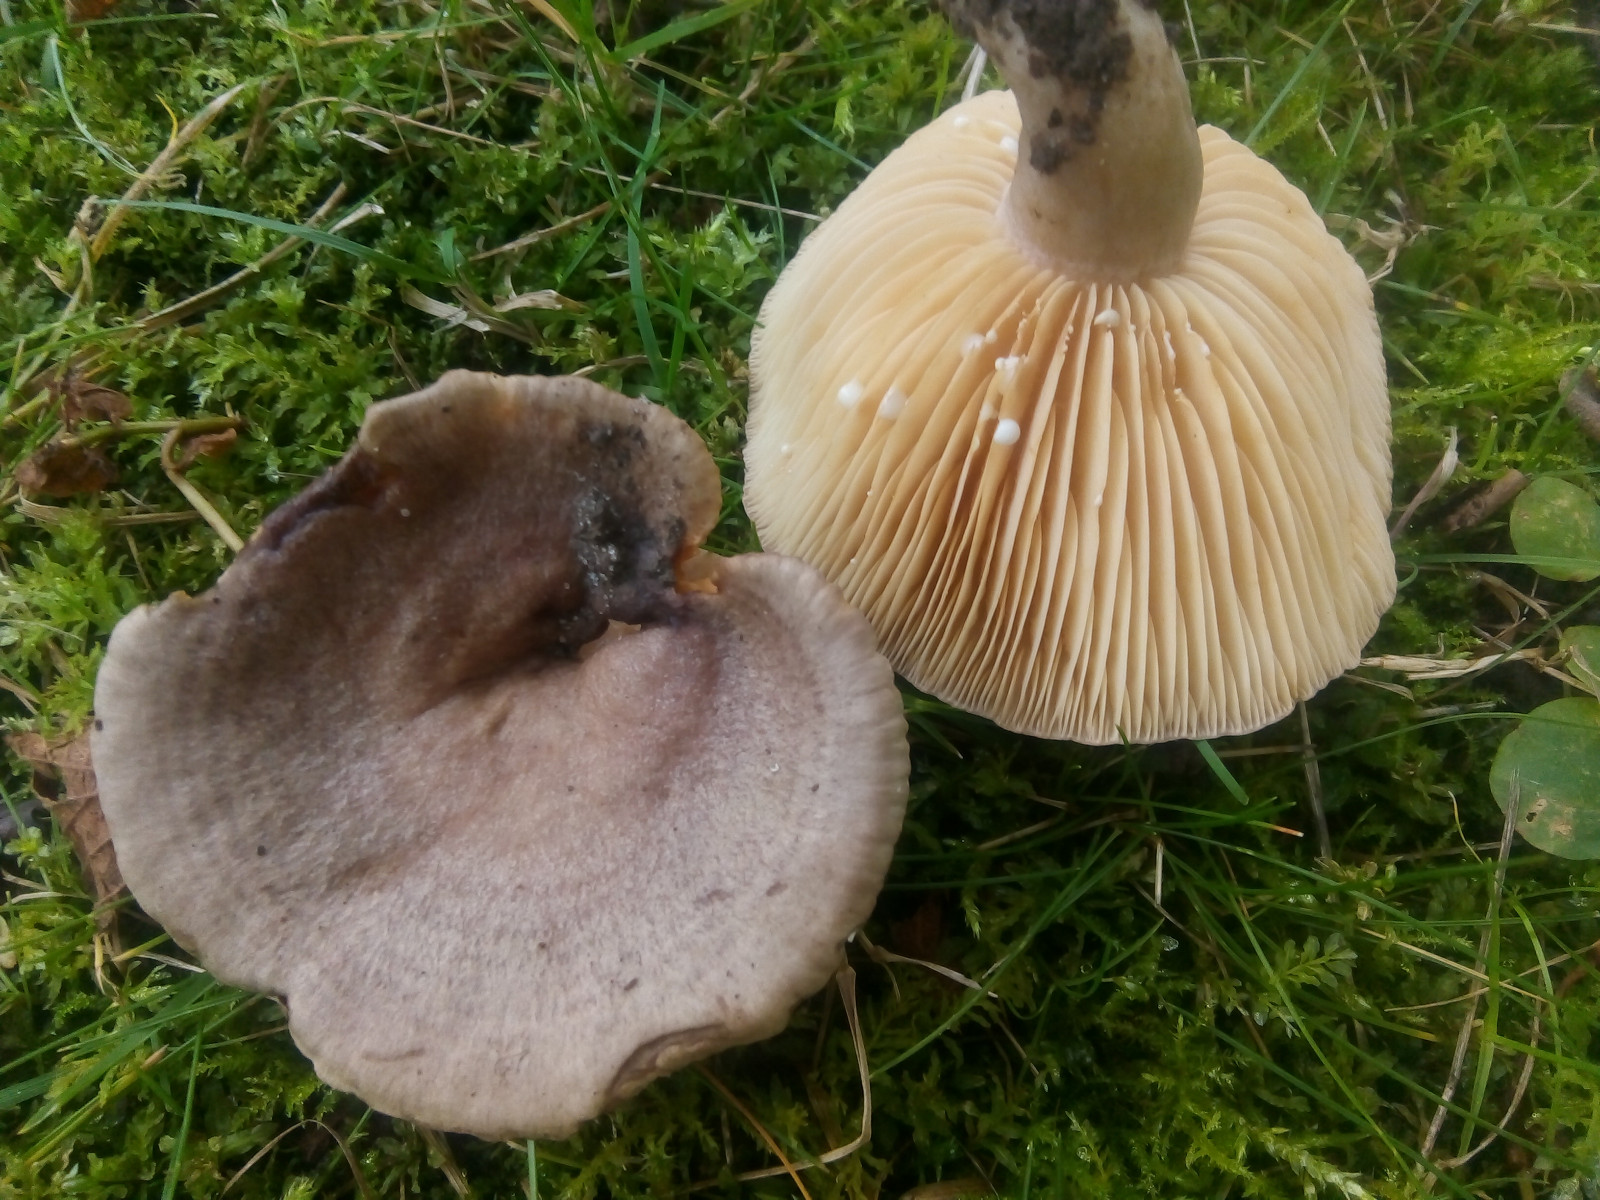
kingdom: Fungi
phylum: Basidiomycota
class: Agaricomycetes
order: Russulales
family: Russulaceae
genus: Lactarius
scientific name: Lactarius pyrogalus
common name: hassel-mælkehat
